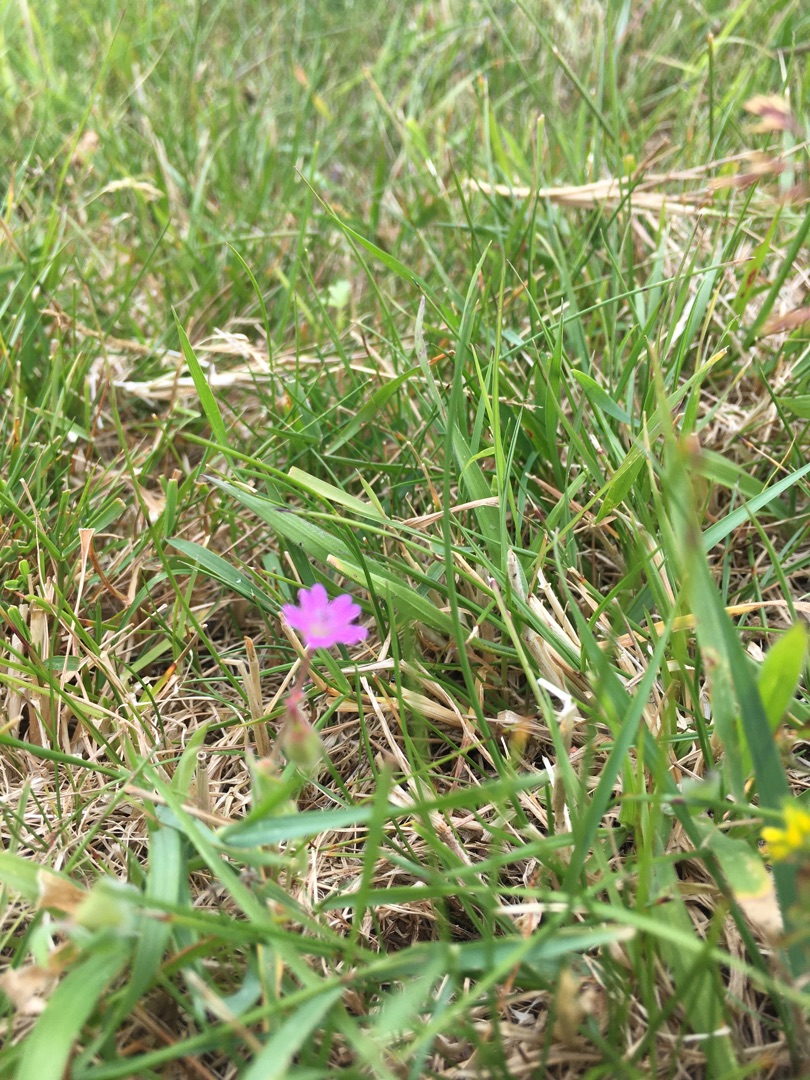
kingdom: Plantae
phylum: Tracheophyta
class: Magnoliopsida
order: Geraniales
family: Geraniaceae
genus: Geranium
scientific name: Geranium
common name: Storkenæbslægten
